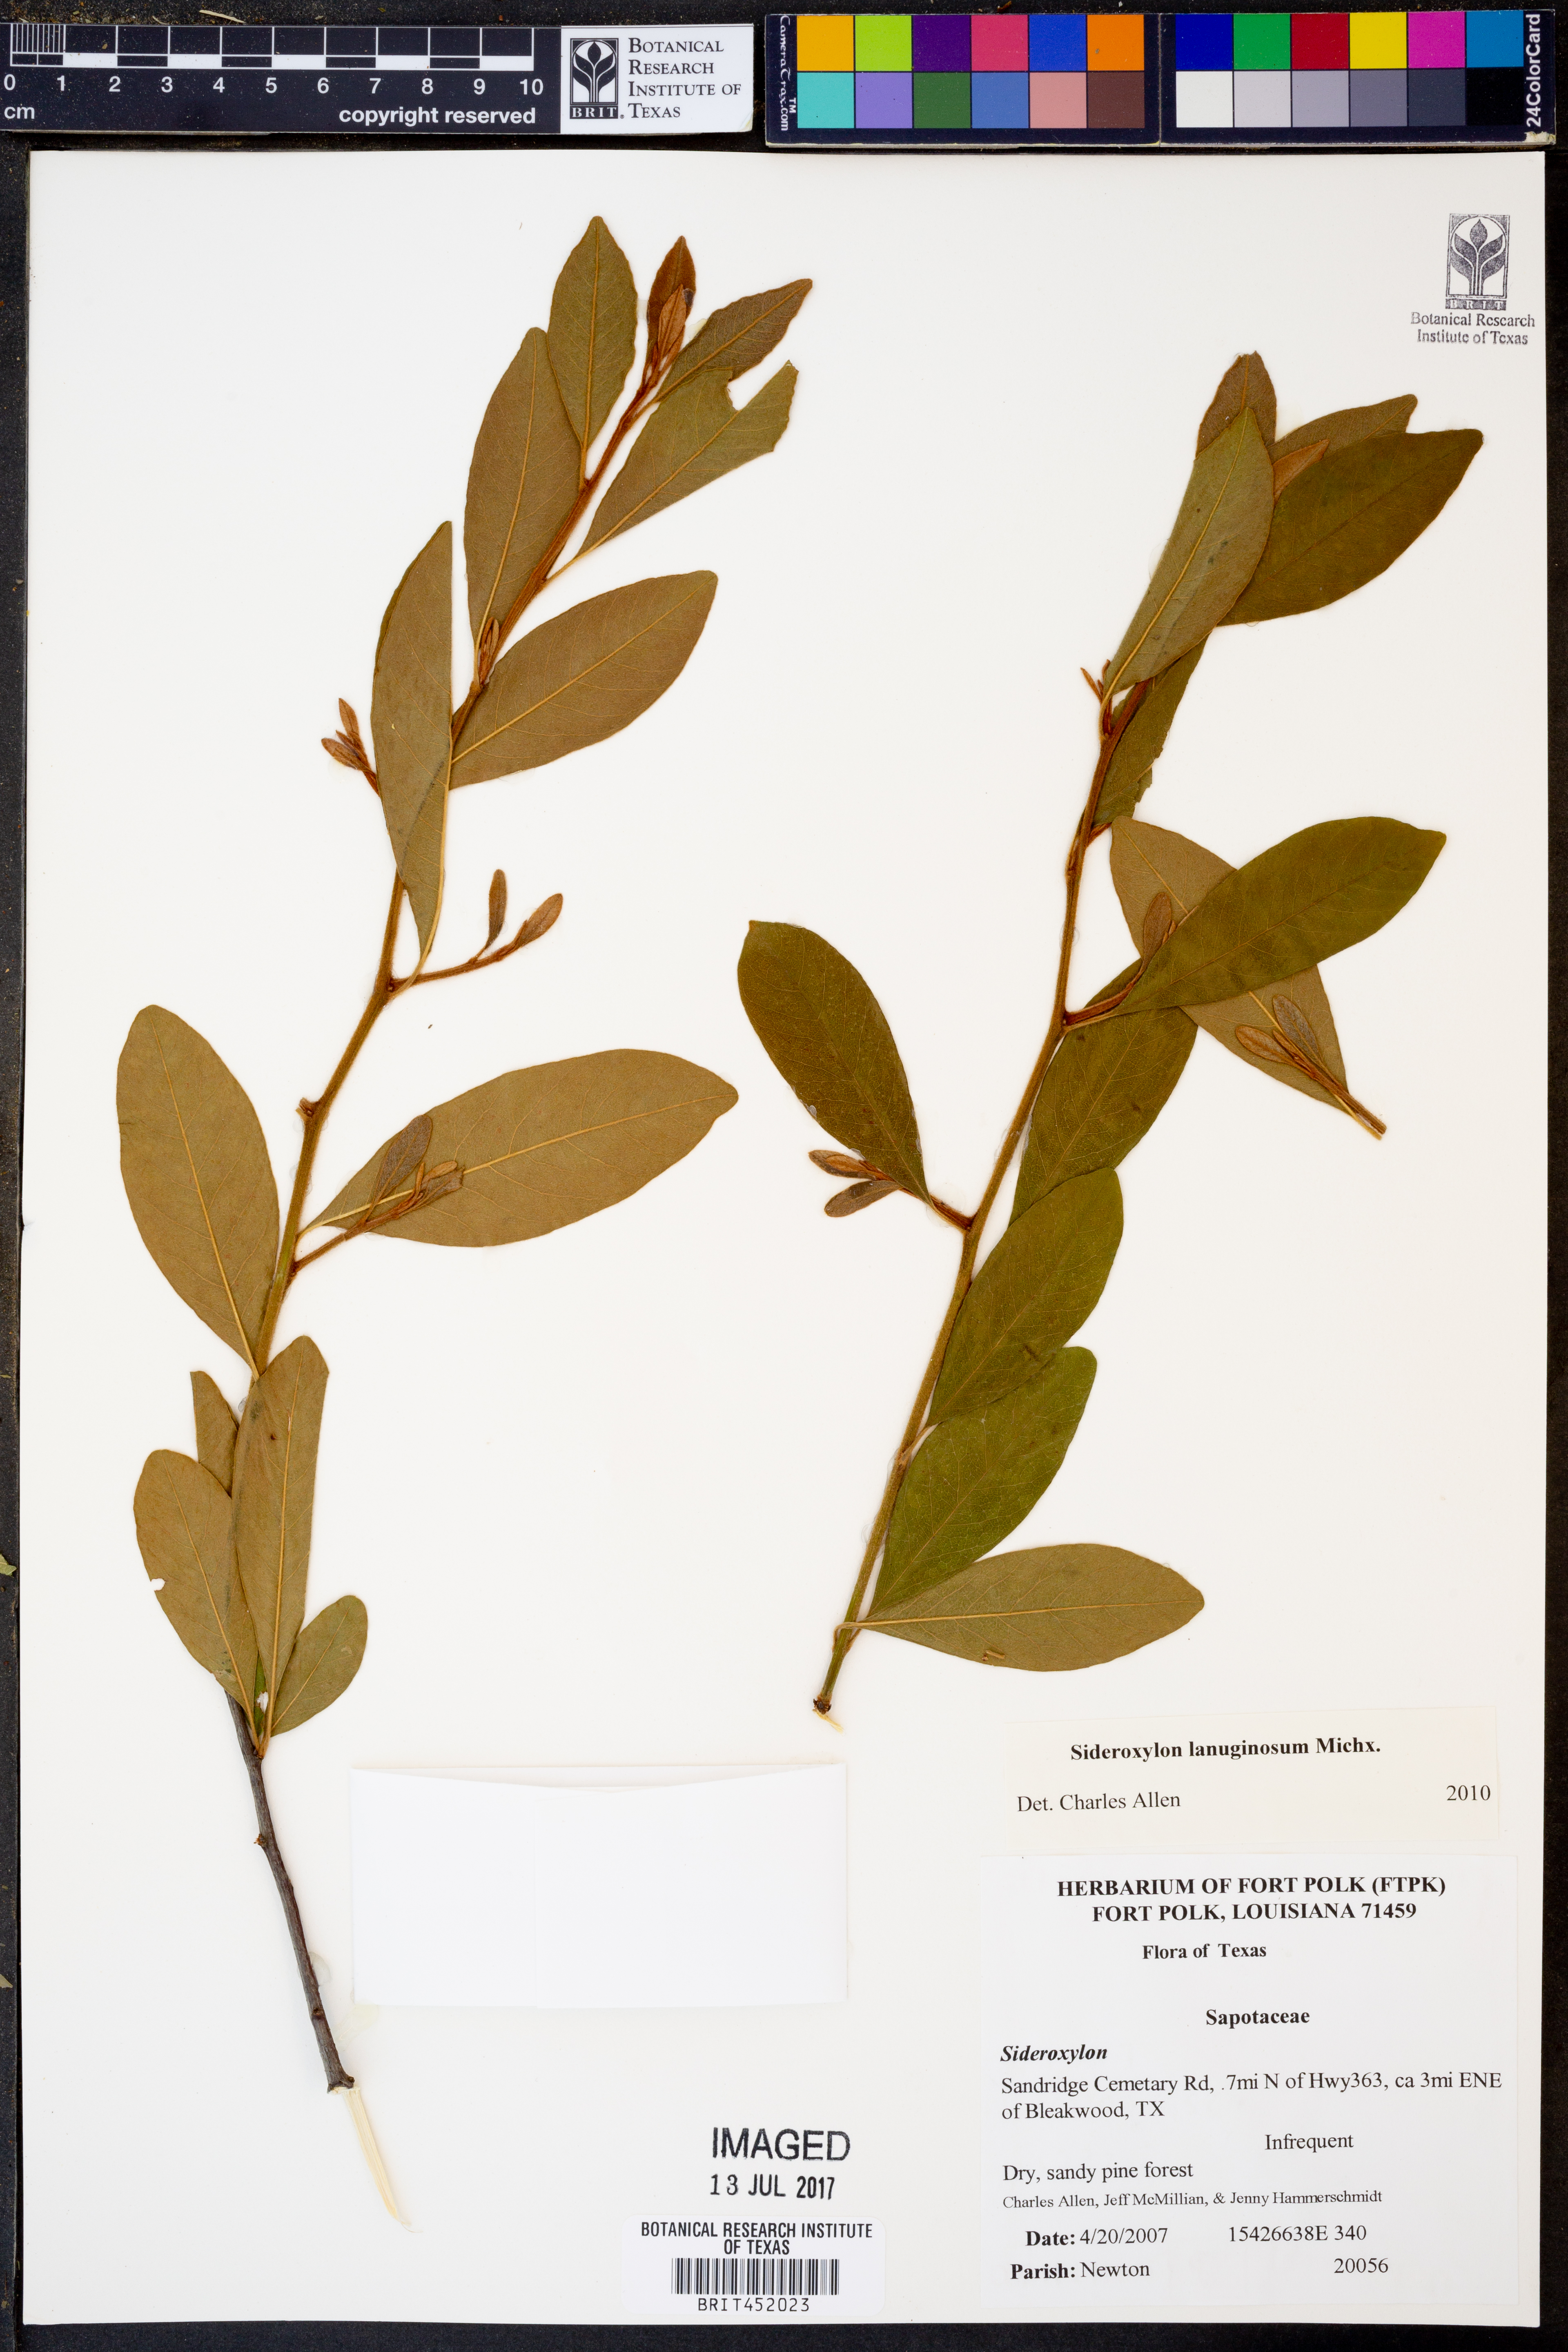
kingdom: Plantae
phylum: Tracheophyta
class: Magnoliopsida
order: Ericales
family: Sapotaceae
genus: Sideroxylon
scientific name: Sideroxylon lanuginosum
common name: Chittamwood
